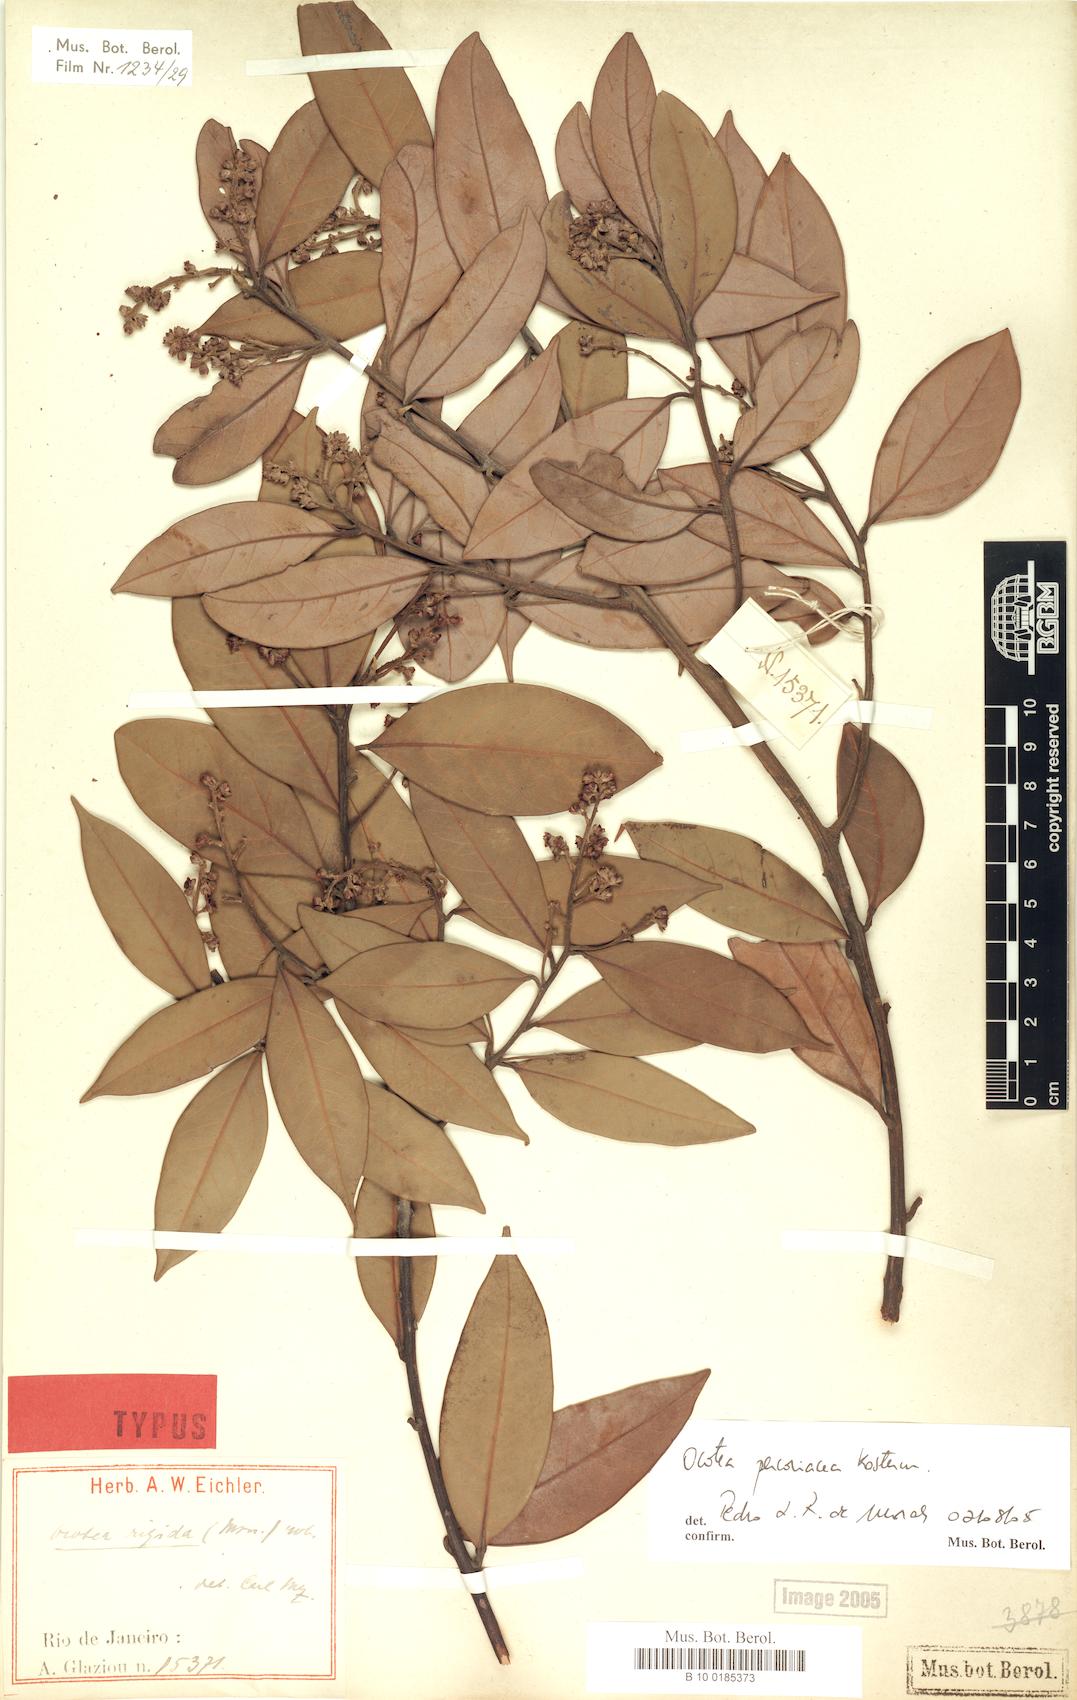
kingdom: Plantae
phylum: Tracheophyta
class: Magnoliopsida
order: Laurales
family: Lauraceae
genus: Ocotea
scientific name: Ocotea percoriacea
